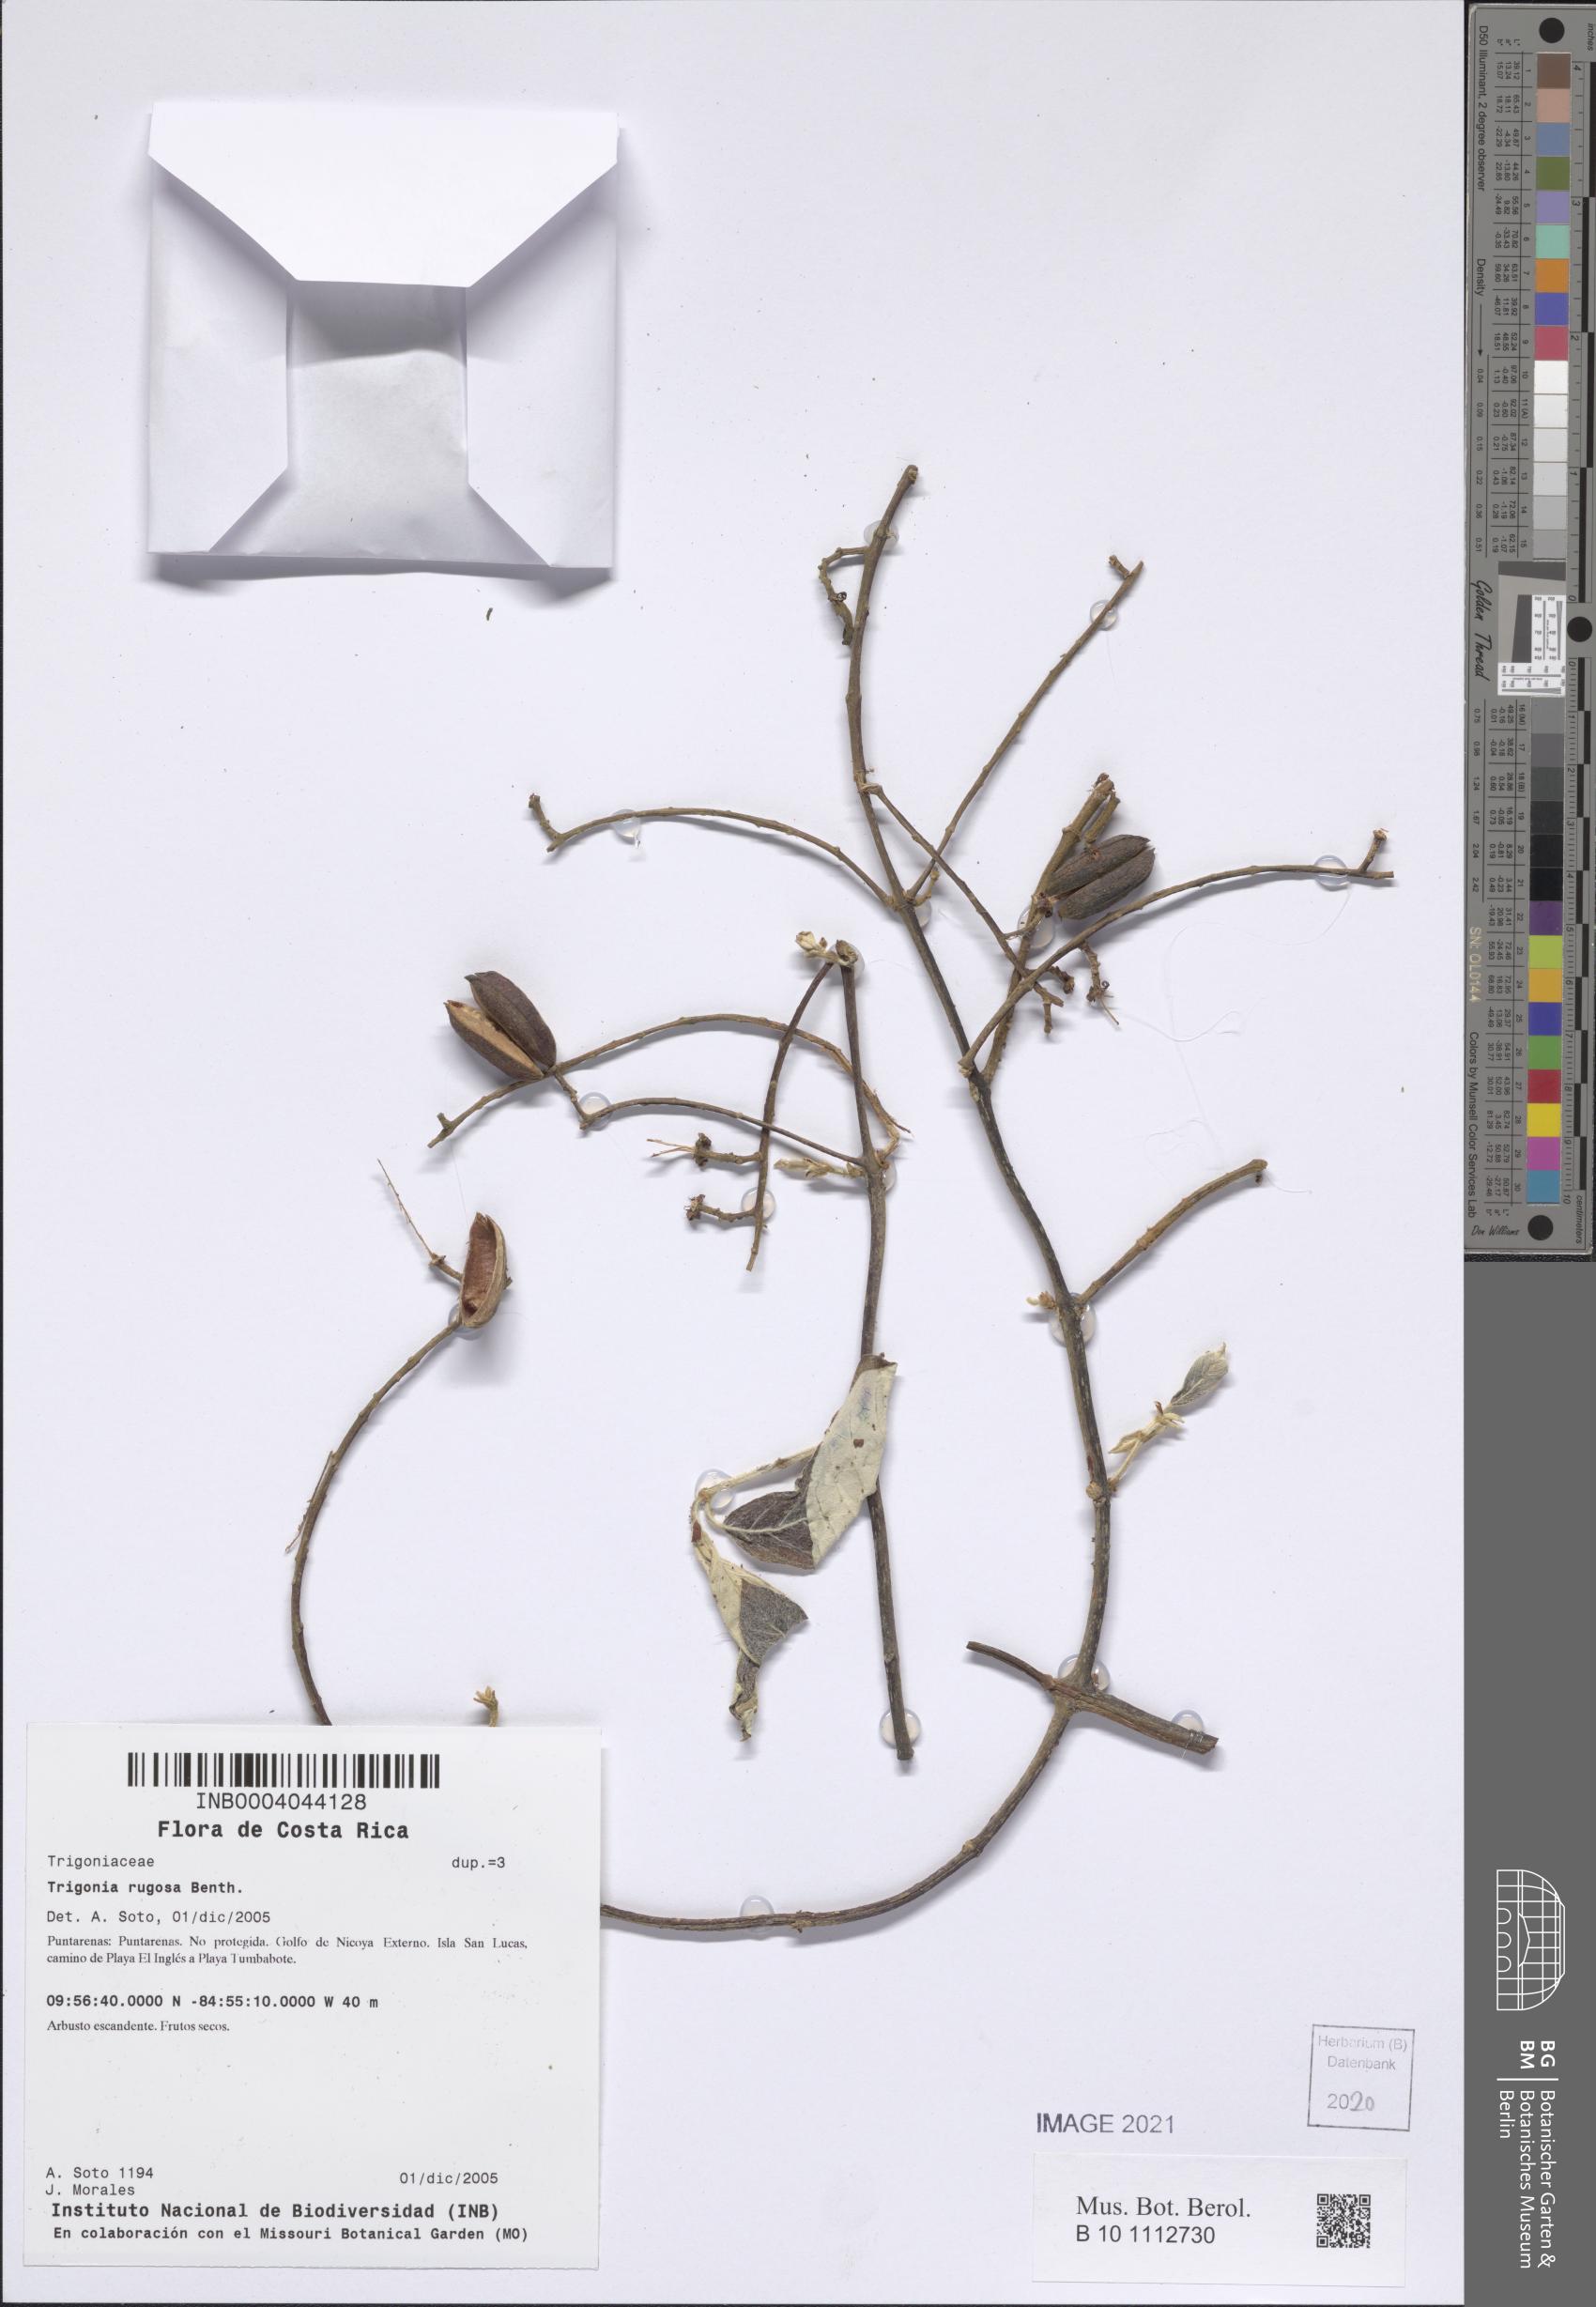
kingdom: Plantae
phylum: Tracheophyta
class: Magnoliopsida
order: Malpighiales
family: Trigoniaceae
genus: Trigonia
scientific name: Trigonia rugosa
